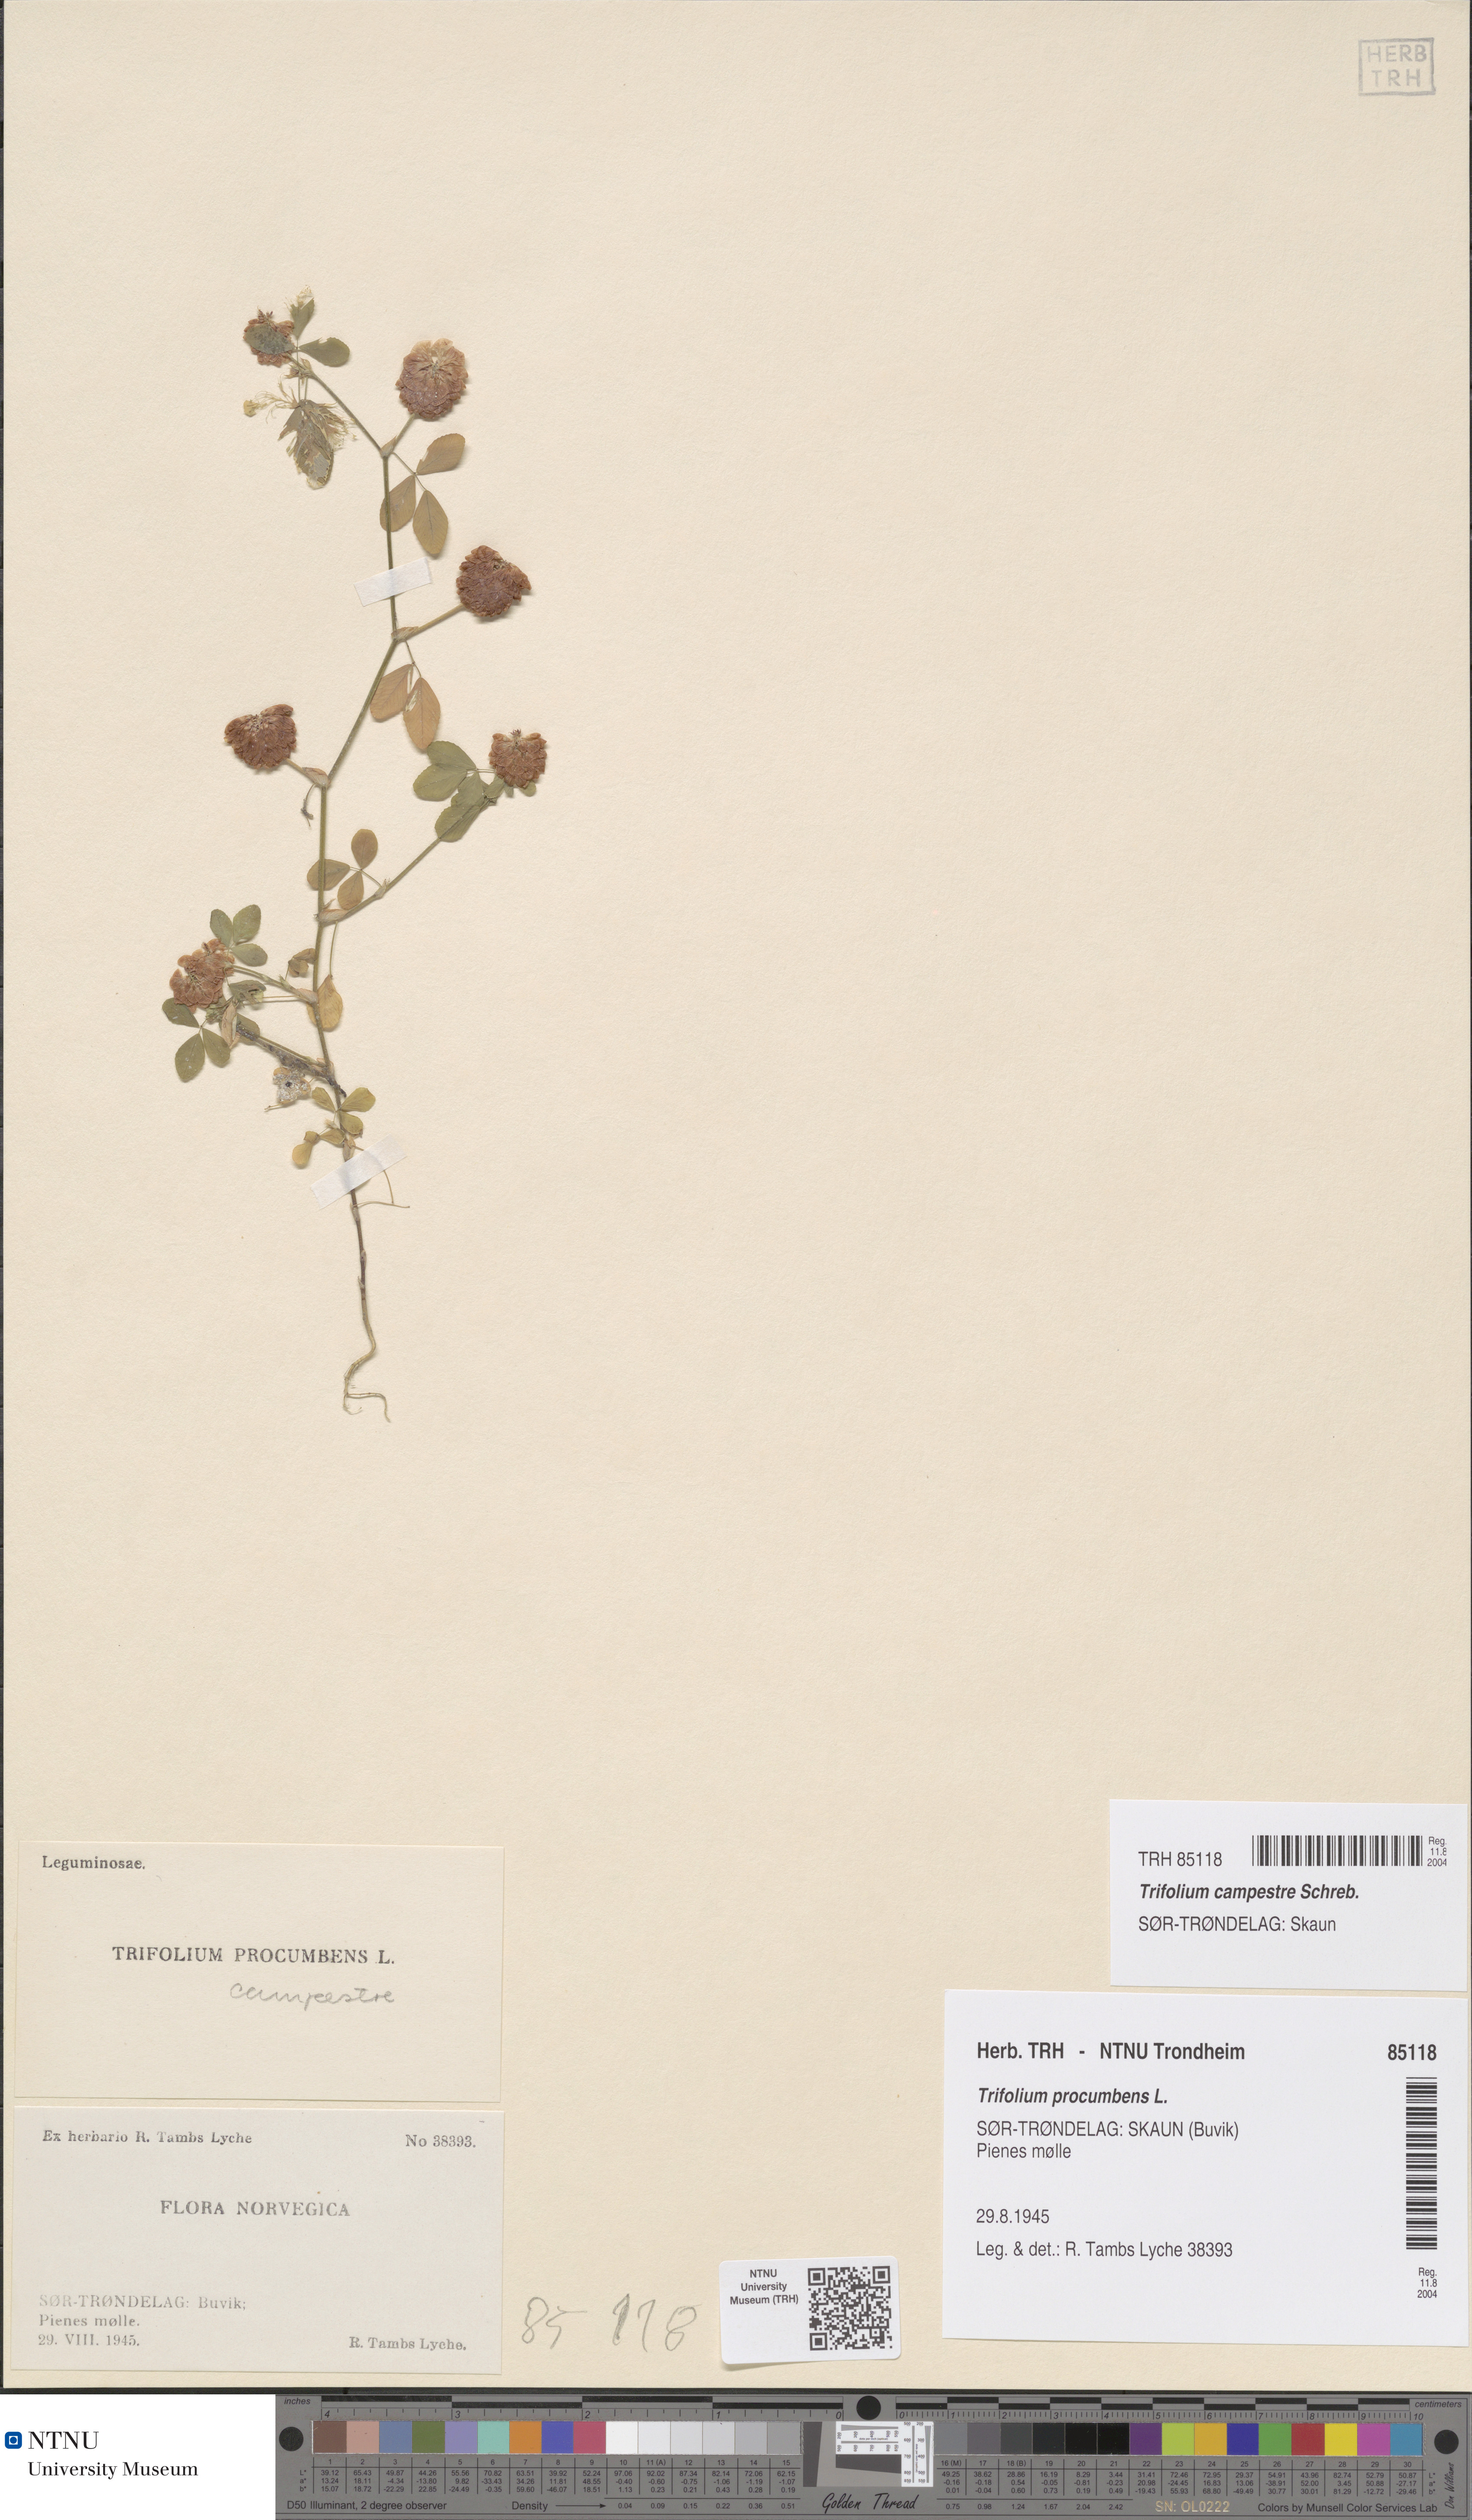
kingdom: Plantae
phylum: Tracheophyta
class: Magnoliopsida
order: Fabales
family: Fabaceae
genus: Trifolium
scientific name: Trifolium campestre
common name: Field clover
